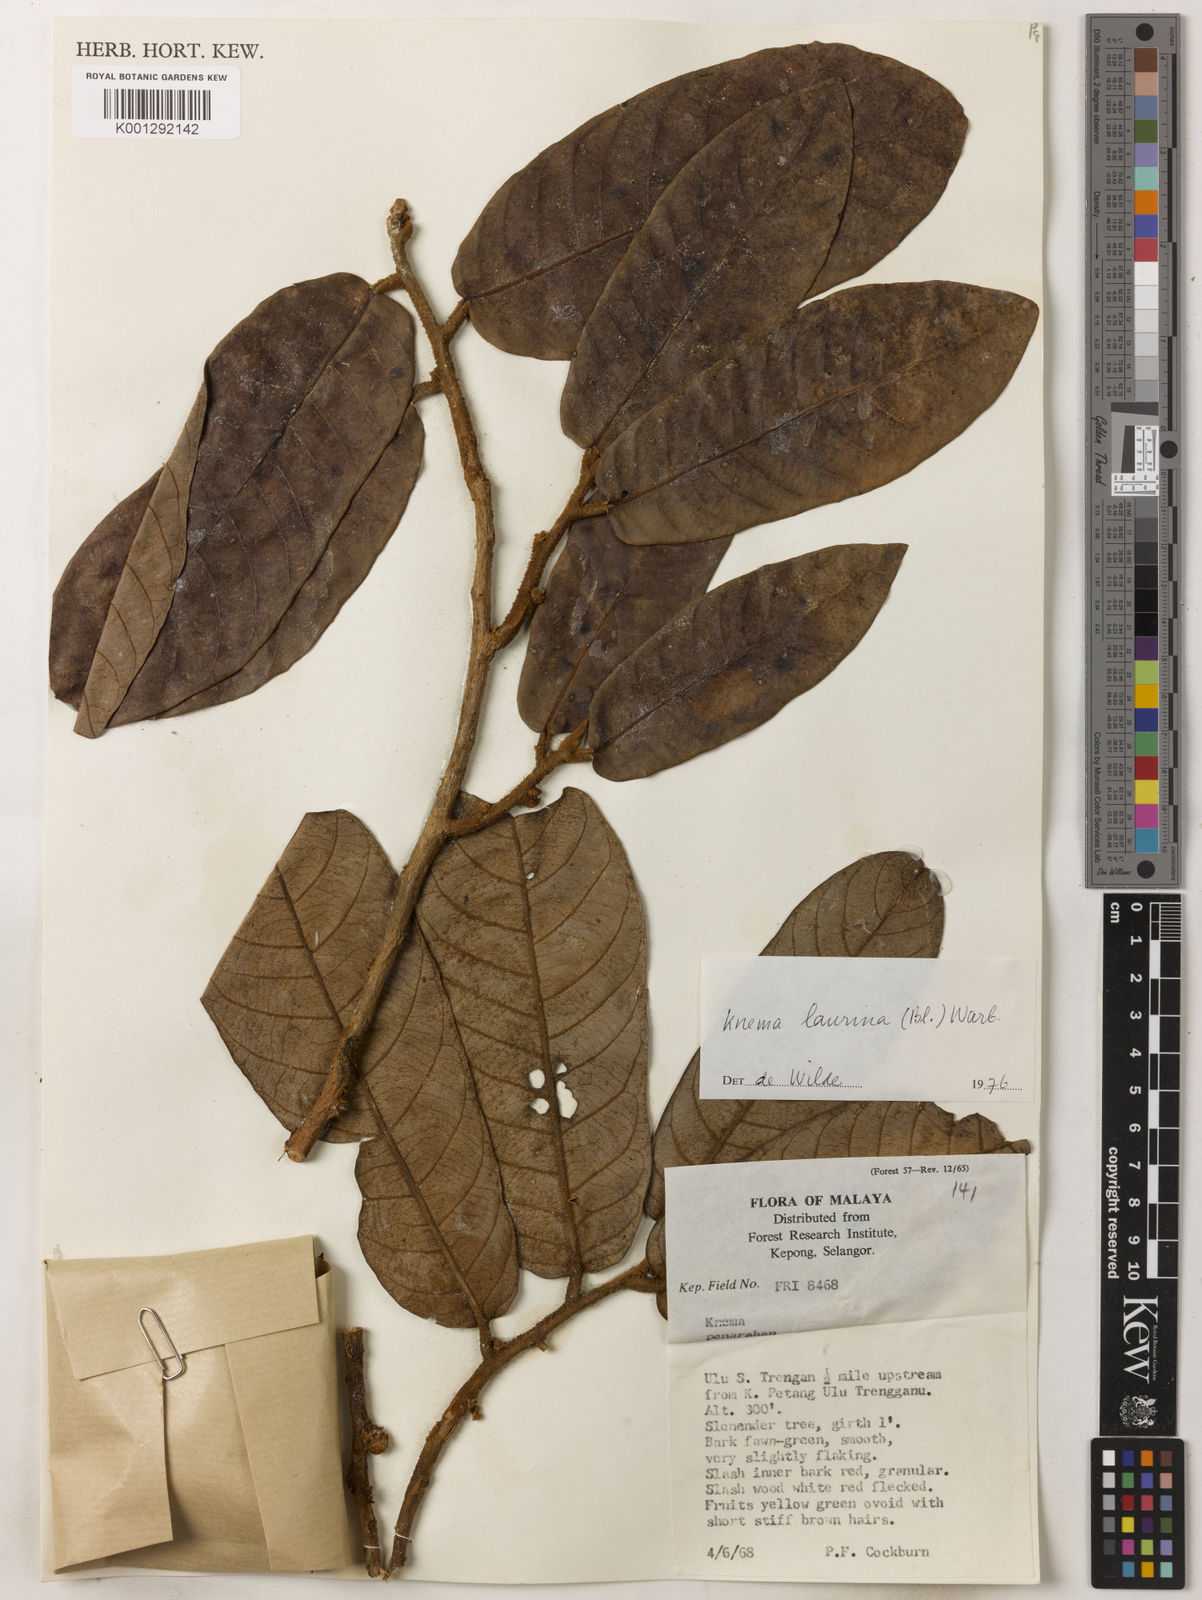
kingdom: Plantae
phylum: Tracheophyta
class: Magnoliopsida
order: Magnoliales
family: Myristicaceae
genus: Knema
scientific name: Knema laurina
